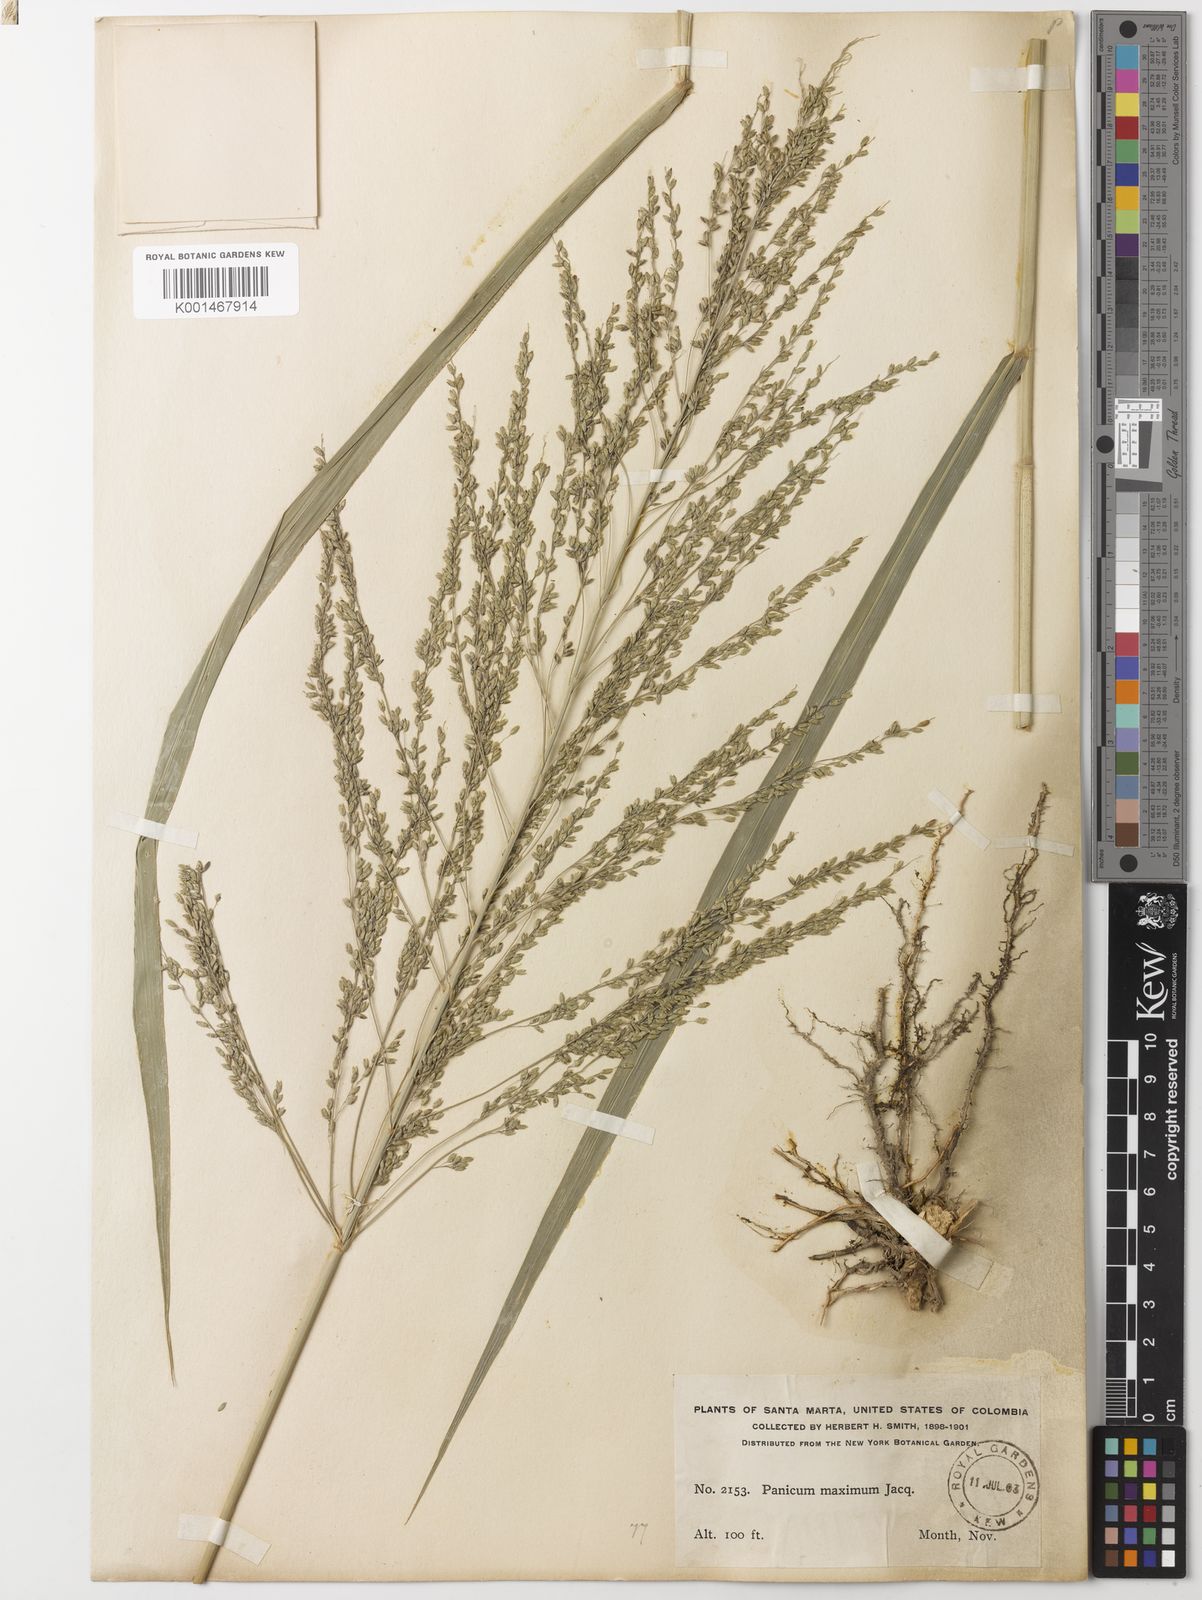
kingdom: Plantae
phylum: Tracheophyta
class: Liliopsida
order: Poales
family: Poaceae
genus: Megathyrsus
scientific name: Megathyrsus maximus
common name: Guineagrass
